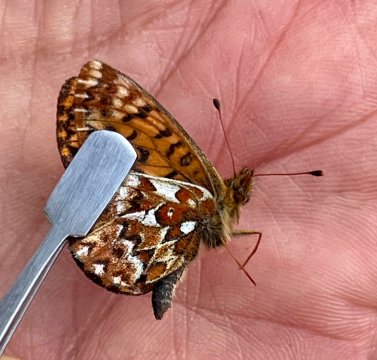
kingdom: Animalia
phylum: Arthropoda
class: Insecta
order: Lepidoptera
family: Nymphalidae
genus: Boloria
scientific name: Boloria freija
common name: Freija Fritillary
